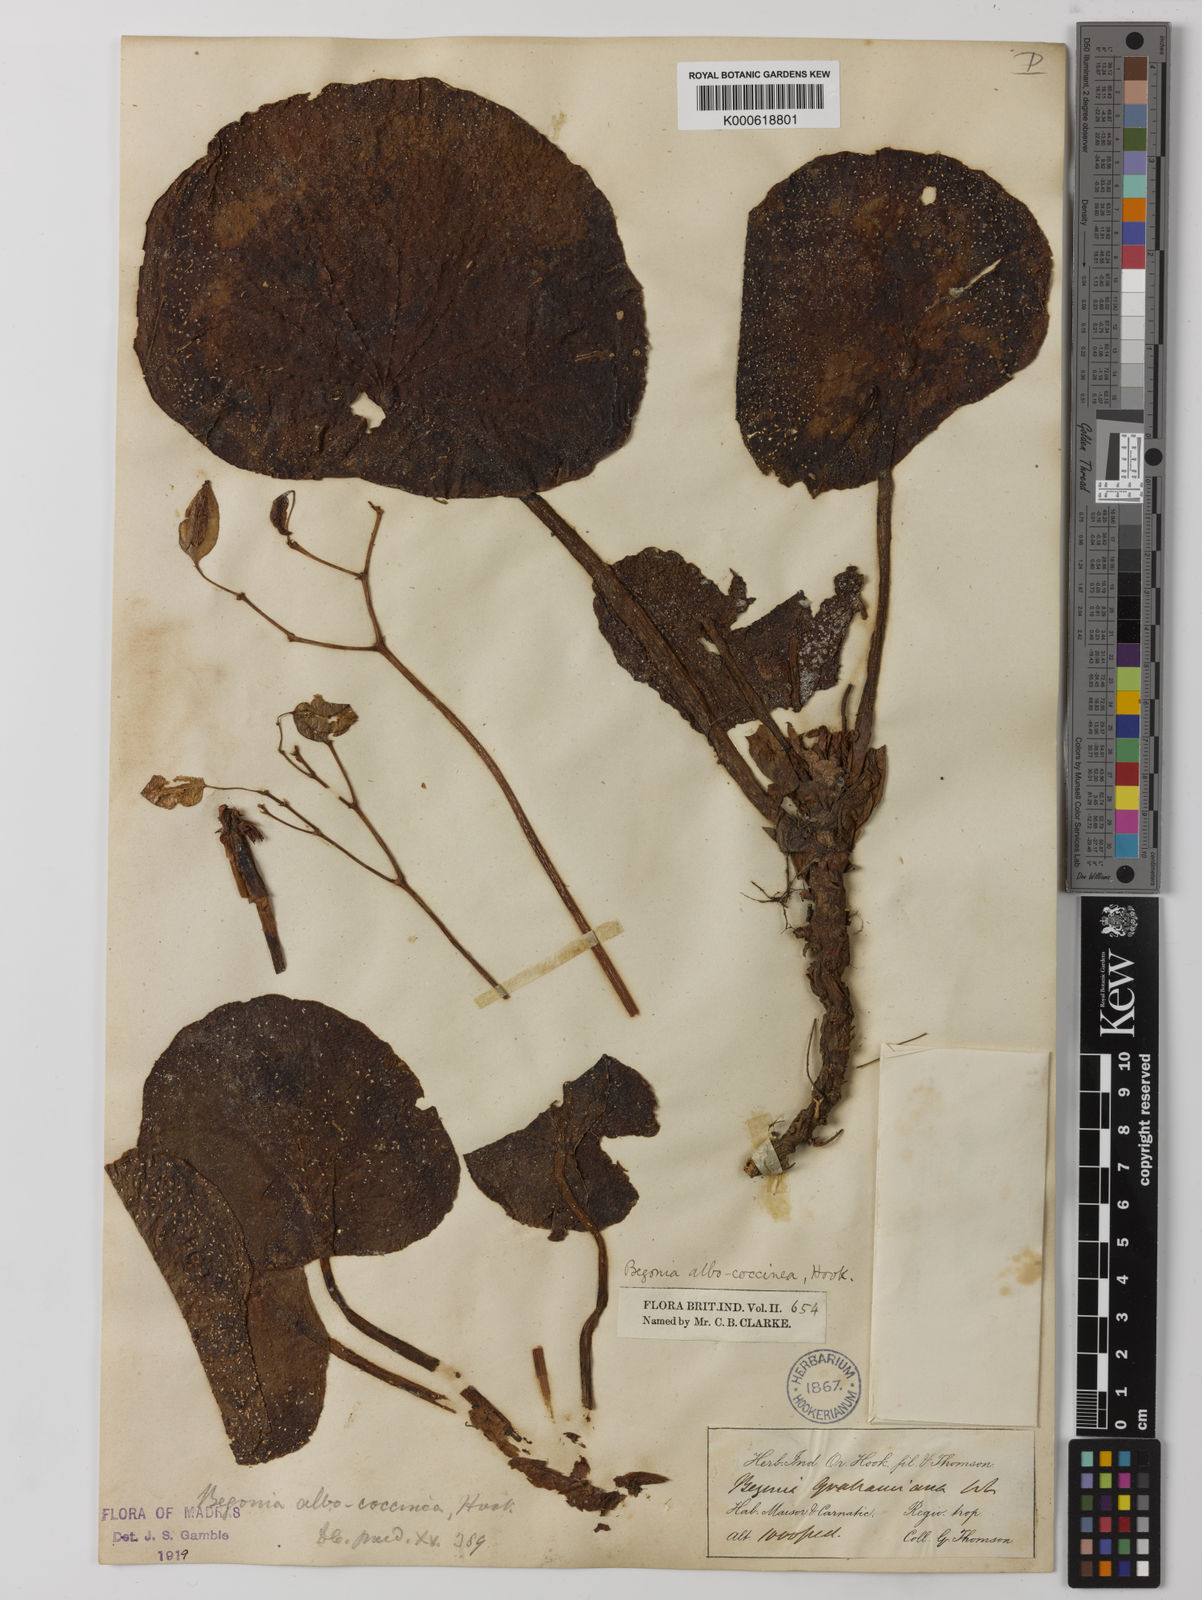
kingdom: Plantae
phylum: Tracheophyta
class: Magnoliopsida
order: Cucurbitales
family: Begoniaceae
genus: Begonia
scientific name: Begonia albococcinea
